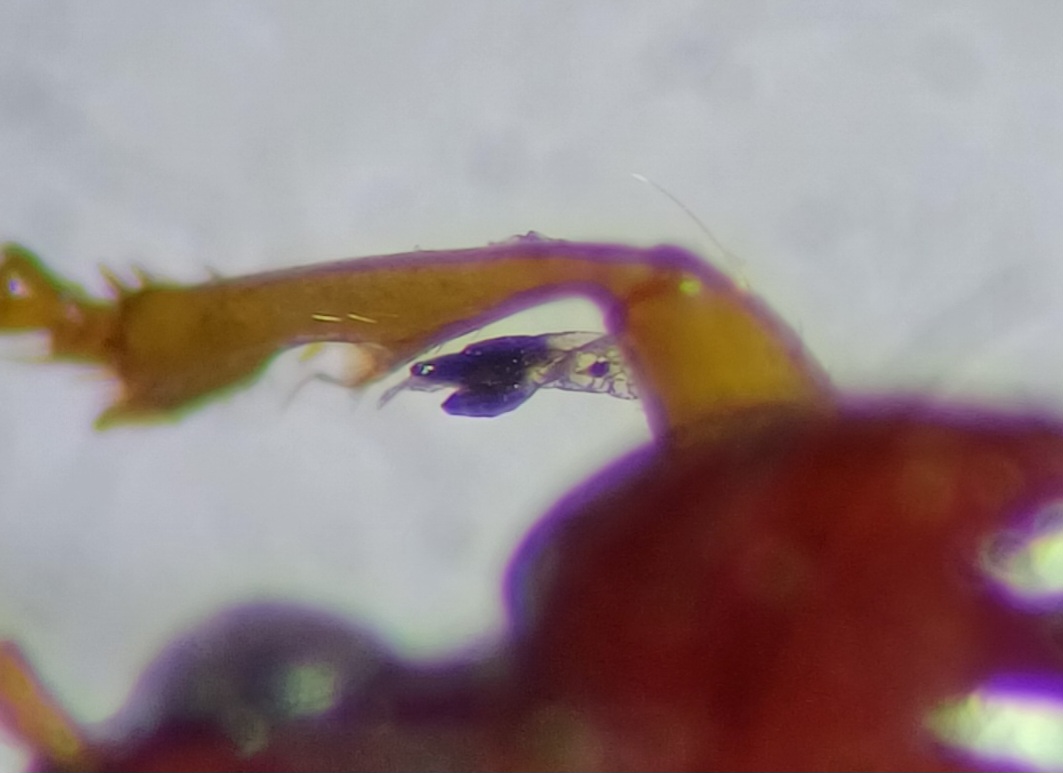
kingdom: Fungi
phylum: Ascomycota
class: Laboulbeniomycetes
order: Laboulbeniales
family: Laboulbeniaceae
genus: Laboulbenia
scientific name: Laboulbenia eubradycelli
